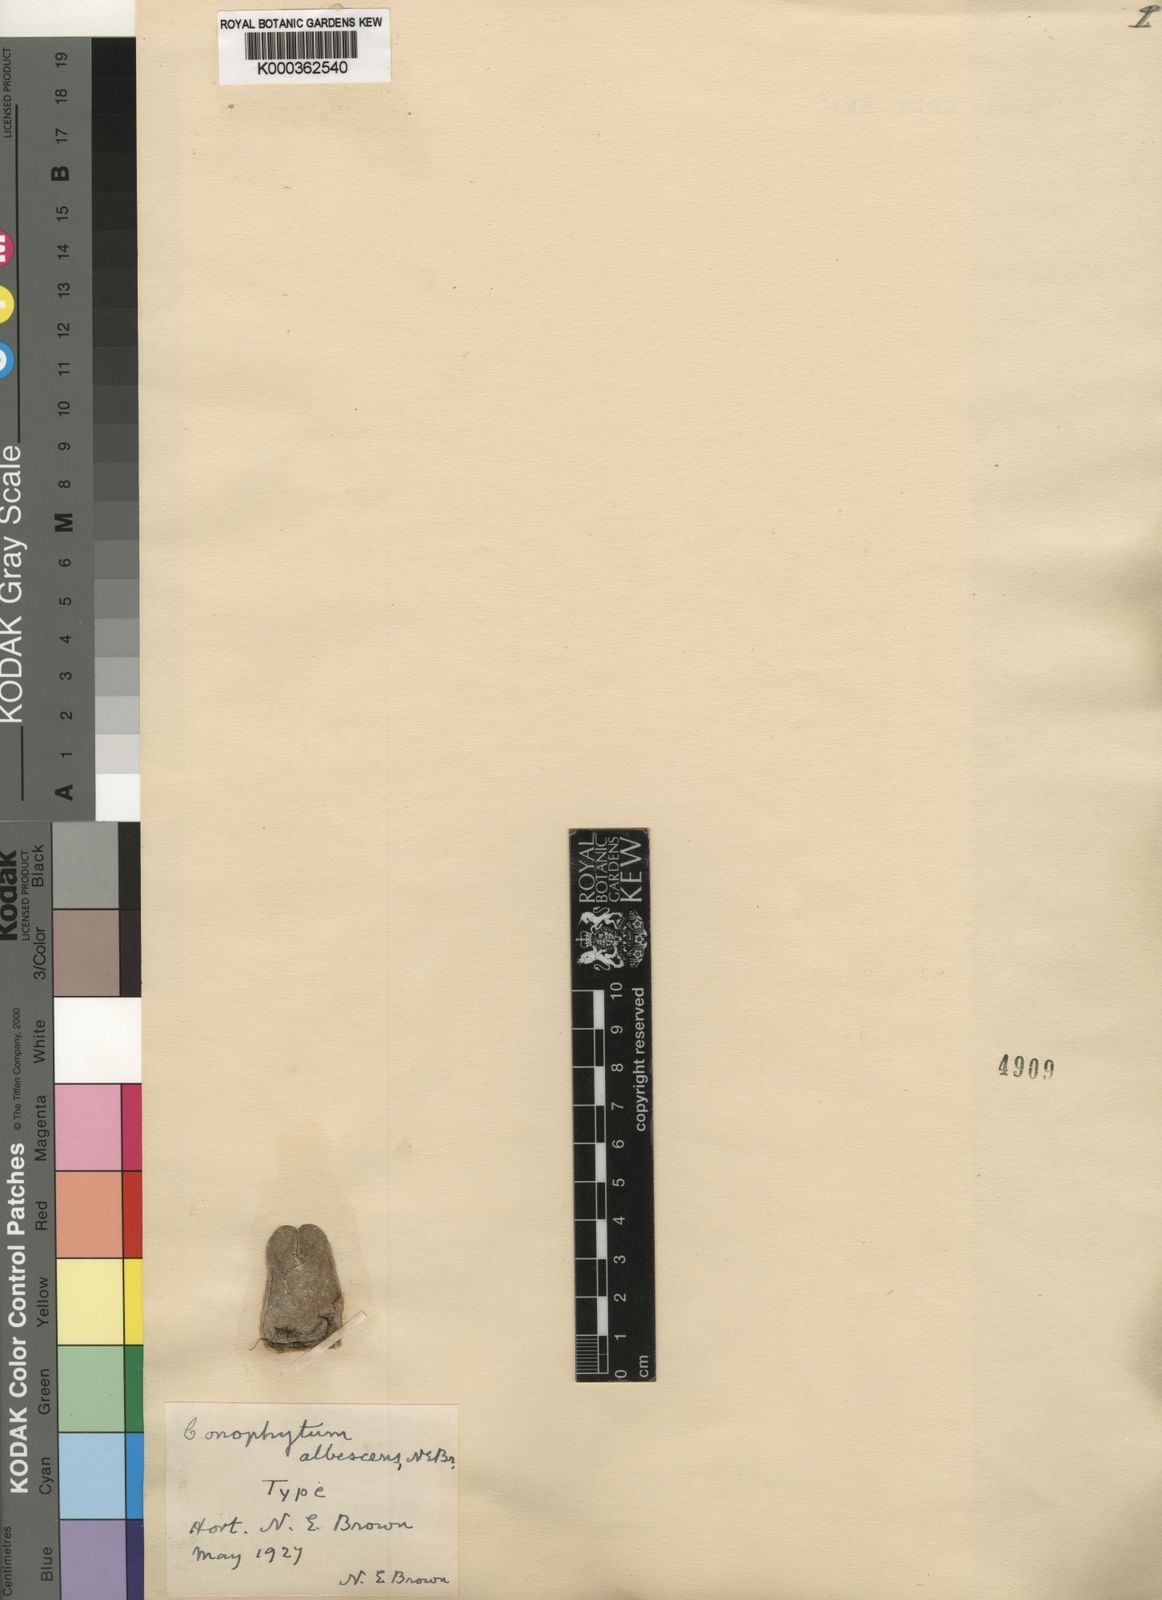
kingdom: Plantae
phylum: Tracheophyta
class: Magnoliopsida
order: Caryophyllales
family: Aizoaceae
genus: Conophytum
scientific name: Conophytum bilobum
